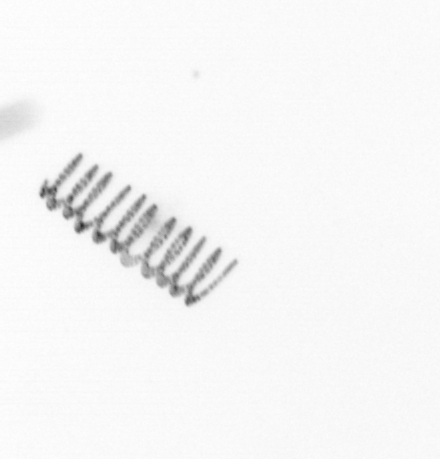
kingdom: Chromista
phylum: Ochrophyta
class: Bacillariophyceae
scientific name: Bacillariophyceae
